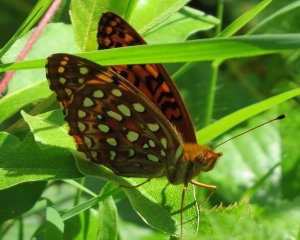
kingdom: Animalia
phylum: Arthropoda
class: Insecta
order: Lepidoptera
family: Nymphalidae
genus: Speyeria
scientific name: Speyeria aphrodite
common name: Aphrodite Fritillary
